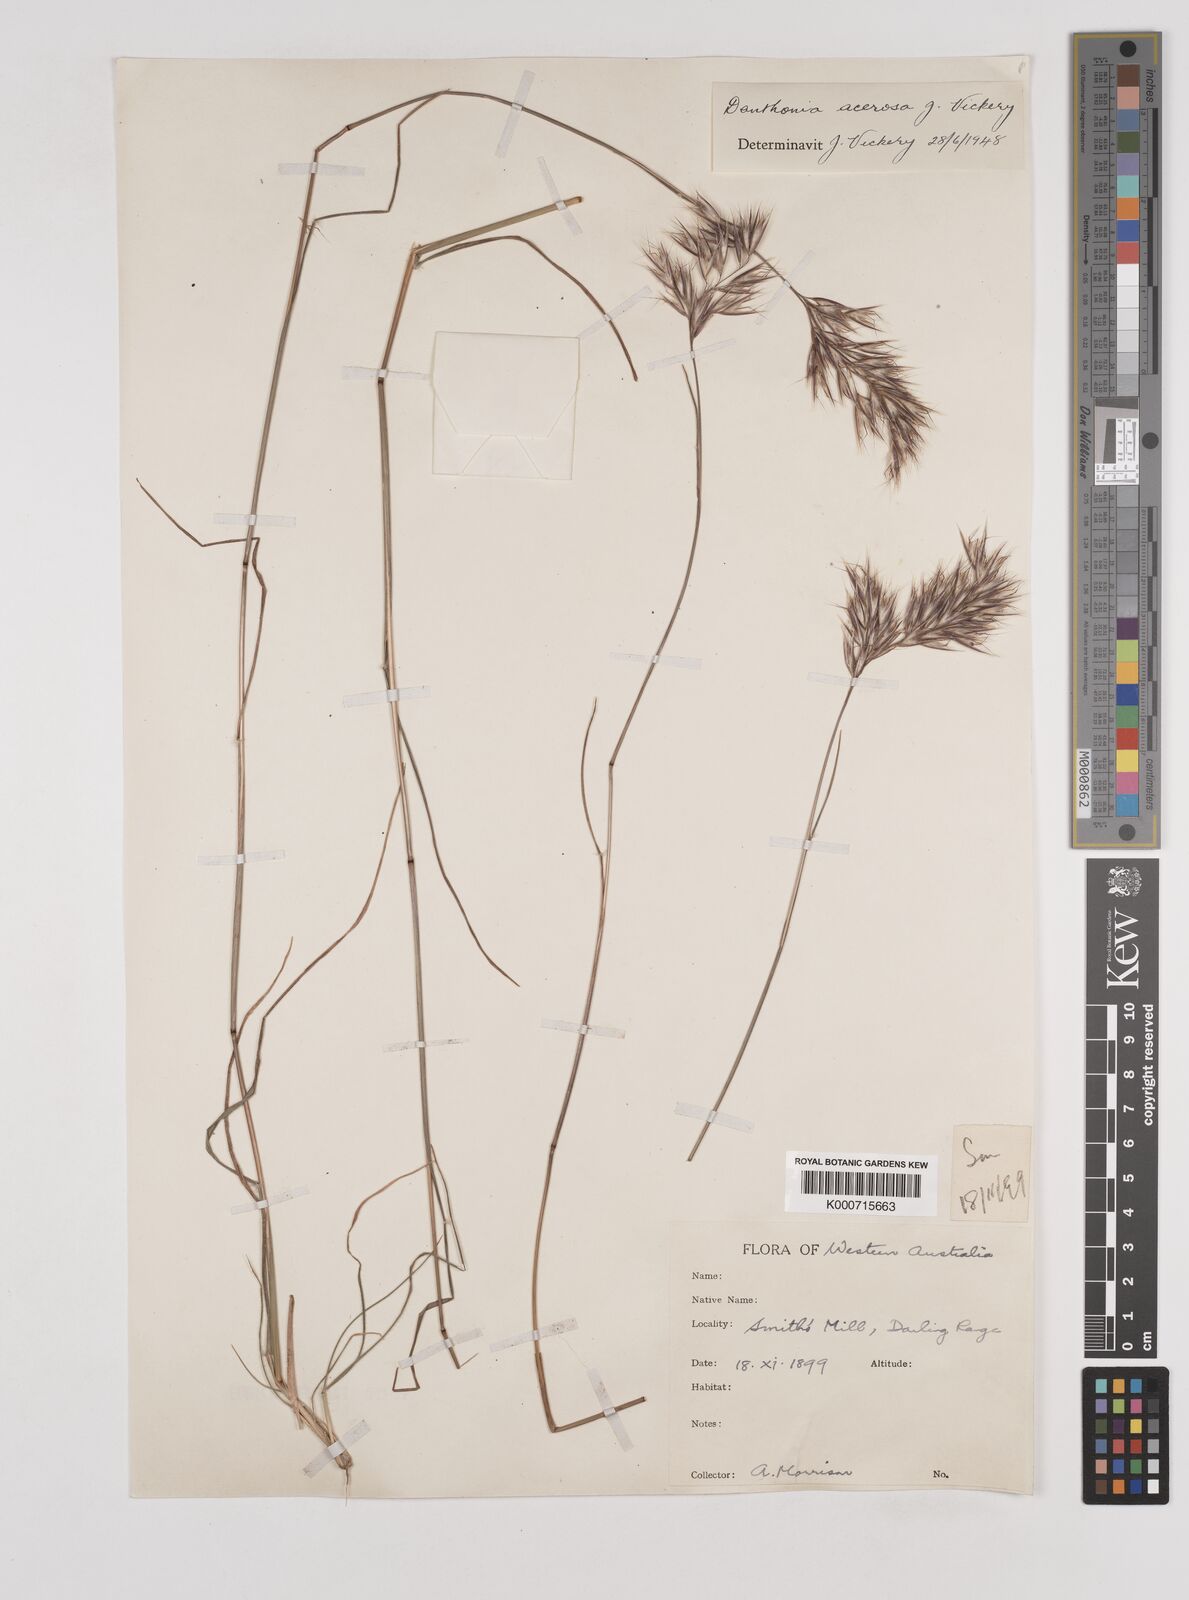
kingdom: Plantae
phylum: Tracheophyta
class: Liliopsida
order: Poales
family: Poaceae
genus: Rytidosperma
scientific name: Rytidosperma acerosum
